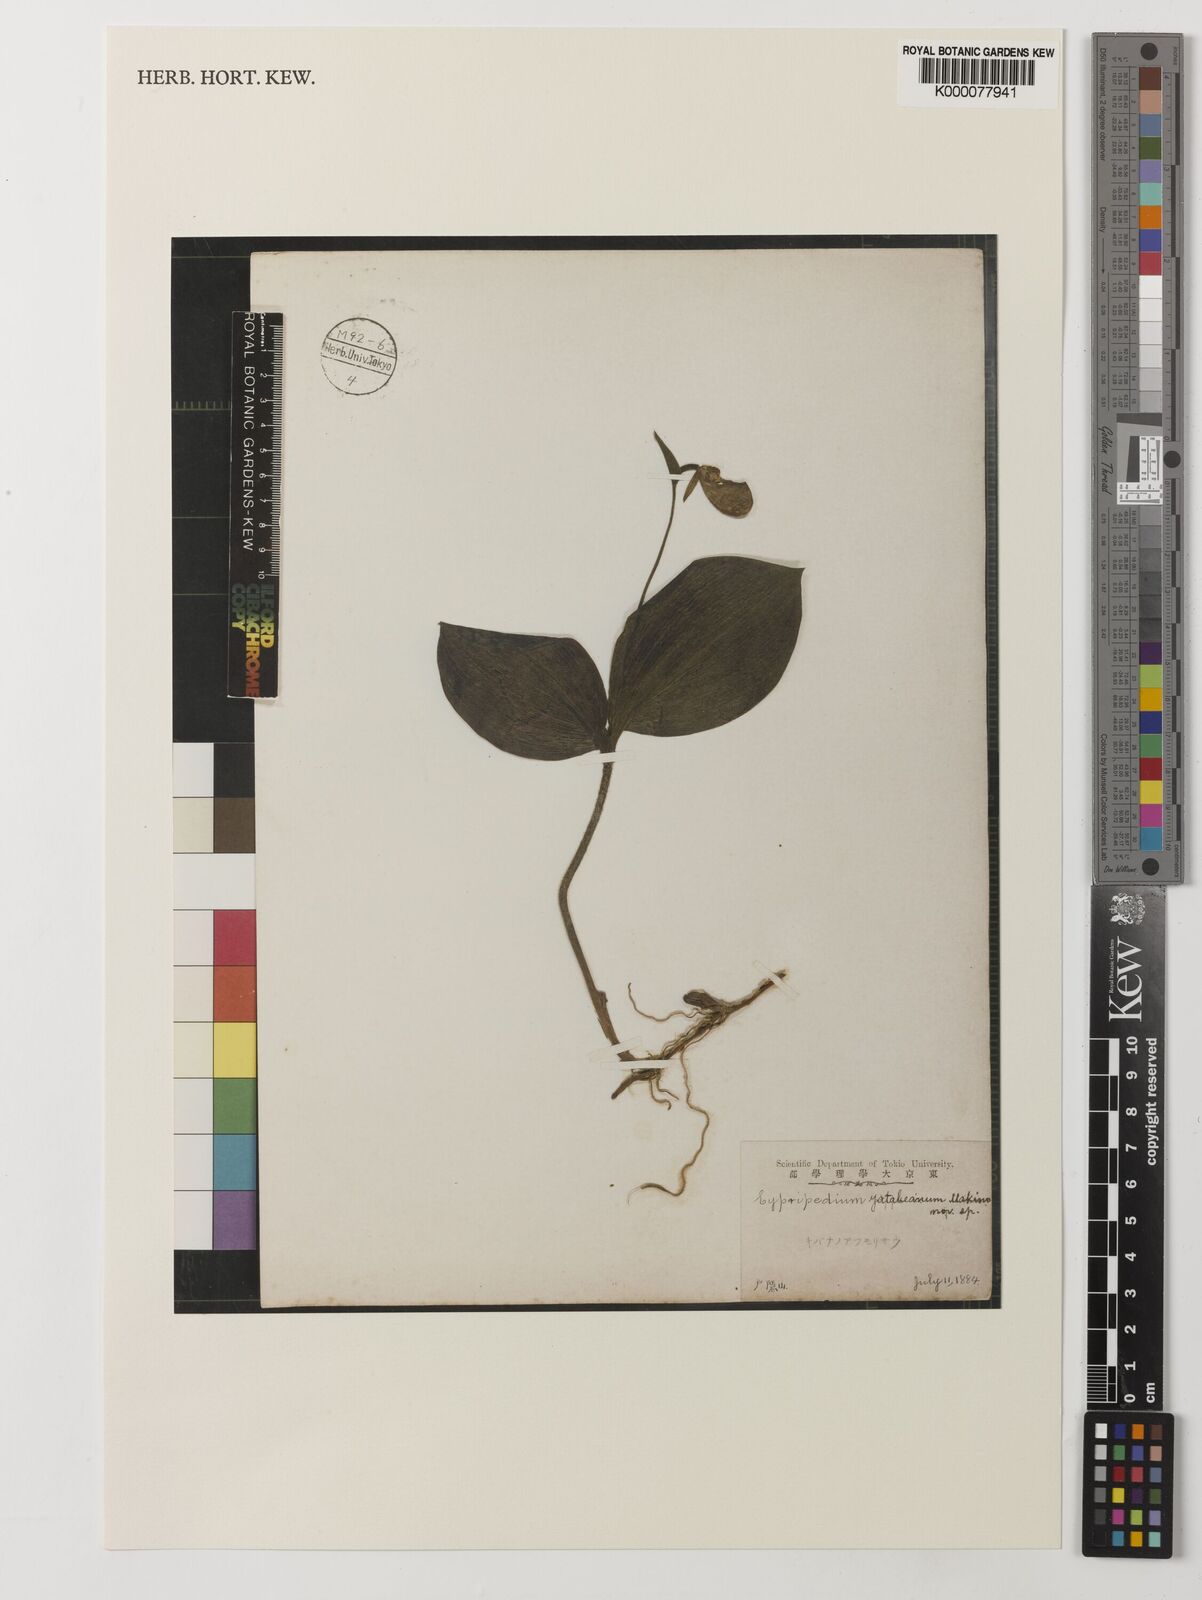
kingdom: Plantae
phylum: Tracheophyta
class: Liliopsida
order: Asparagales
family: Orchidaceae
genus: Cypripedium
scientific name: Cypripedium yatabeanum
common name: Spotted lady's slipper
